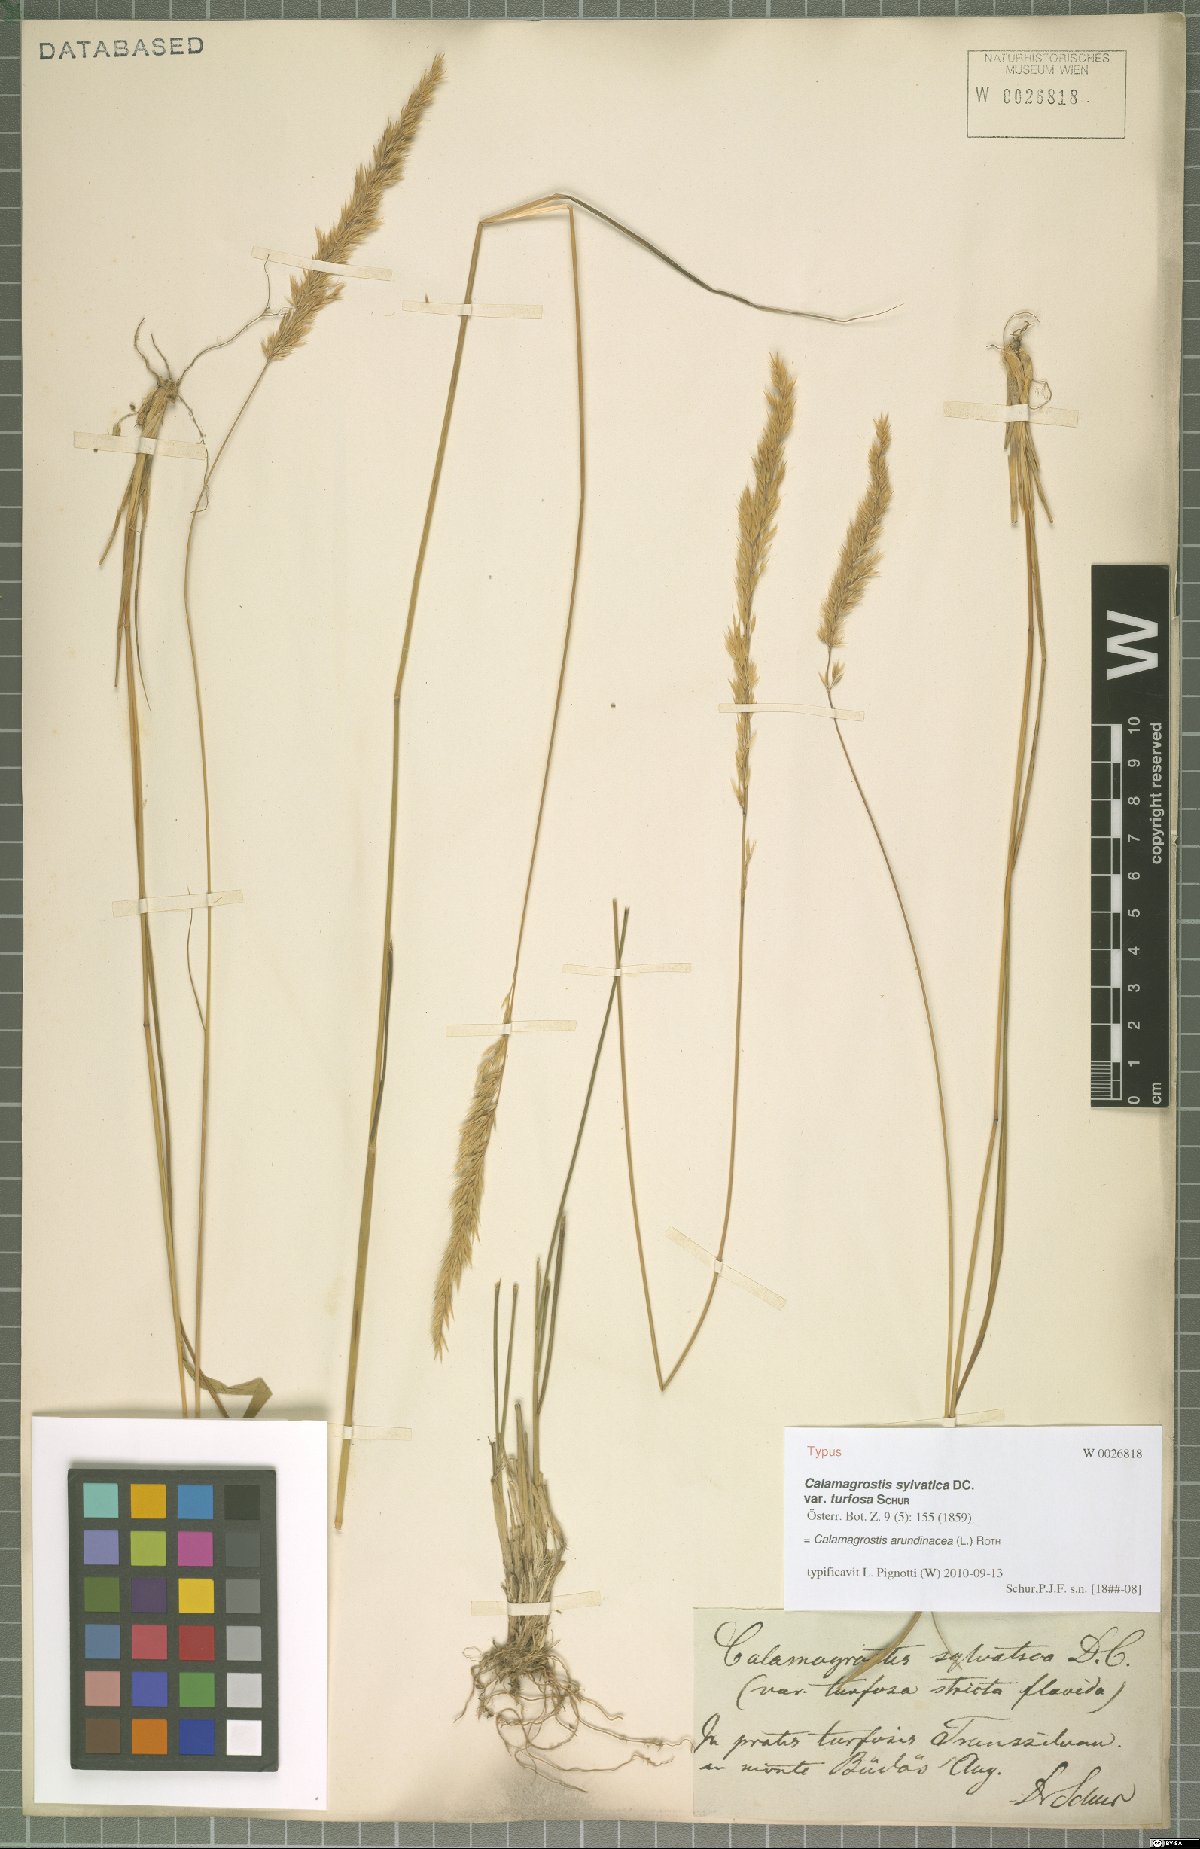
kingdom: Plantae
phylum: Tracheophyta
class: Liliopsida
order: Poales
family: Poaceae
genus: Calamagrostis
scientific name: Calamagrostis varia
